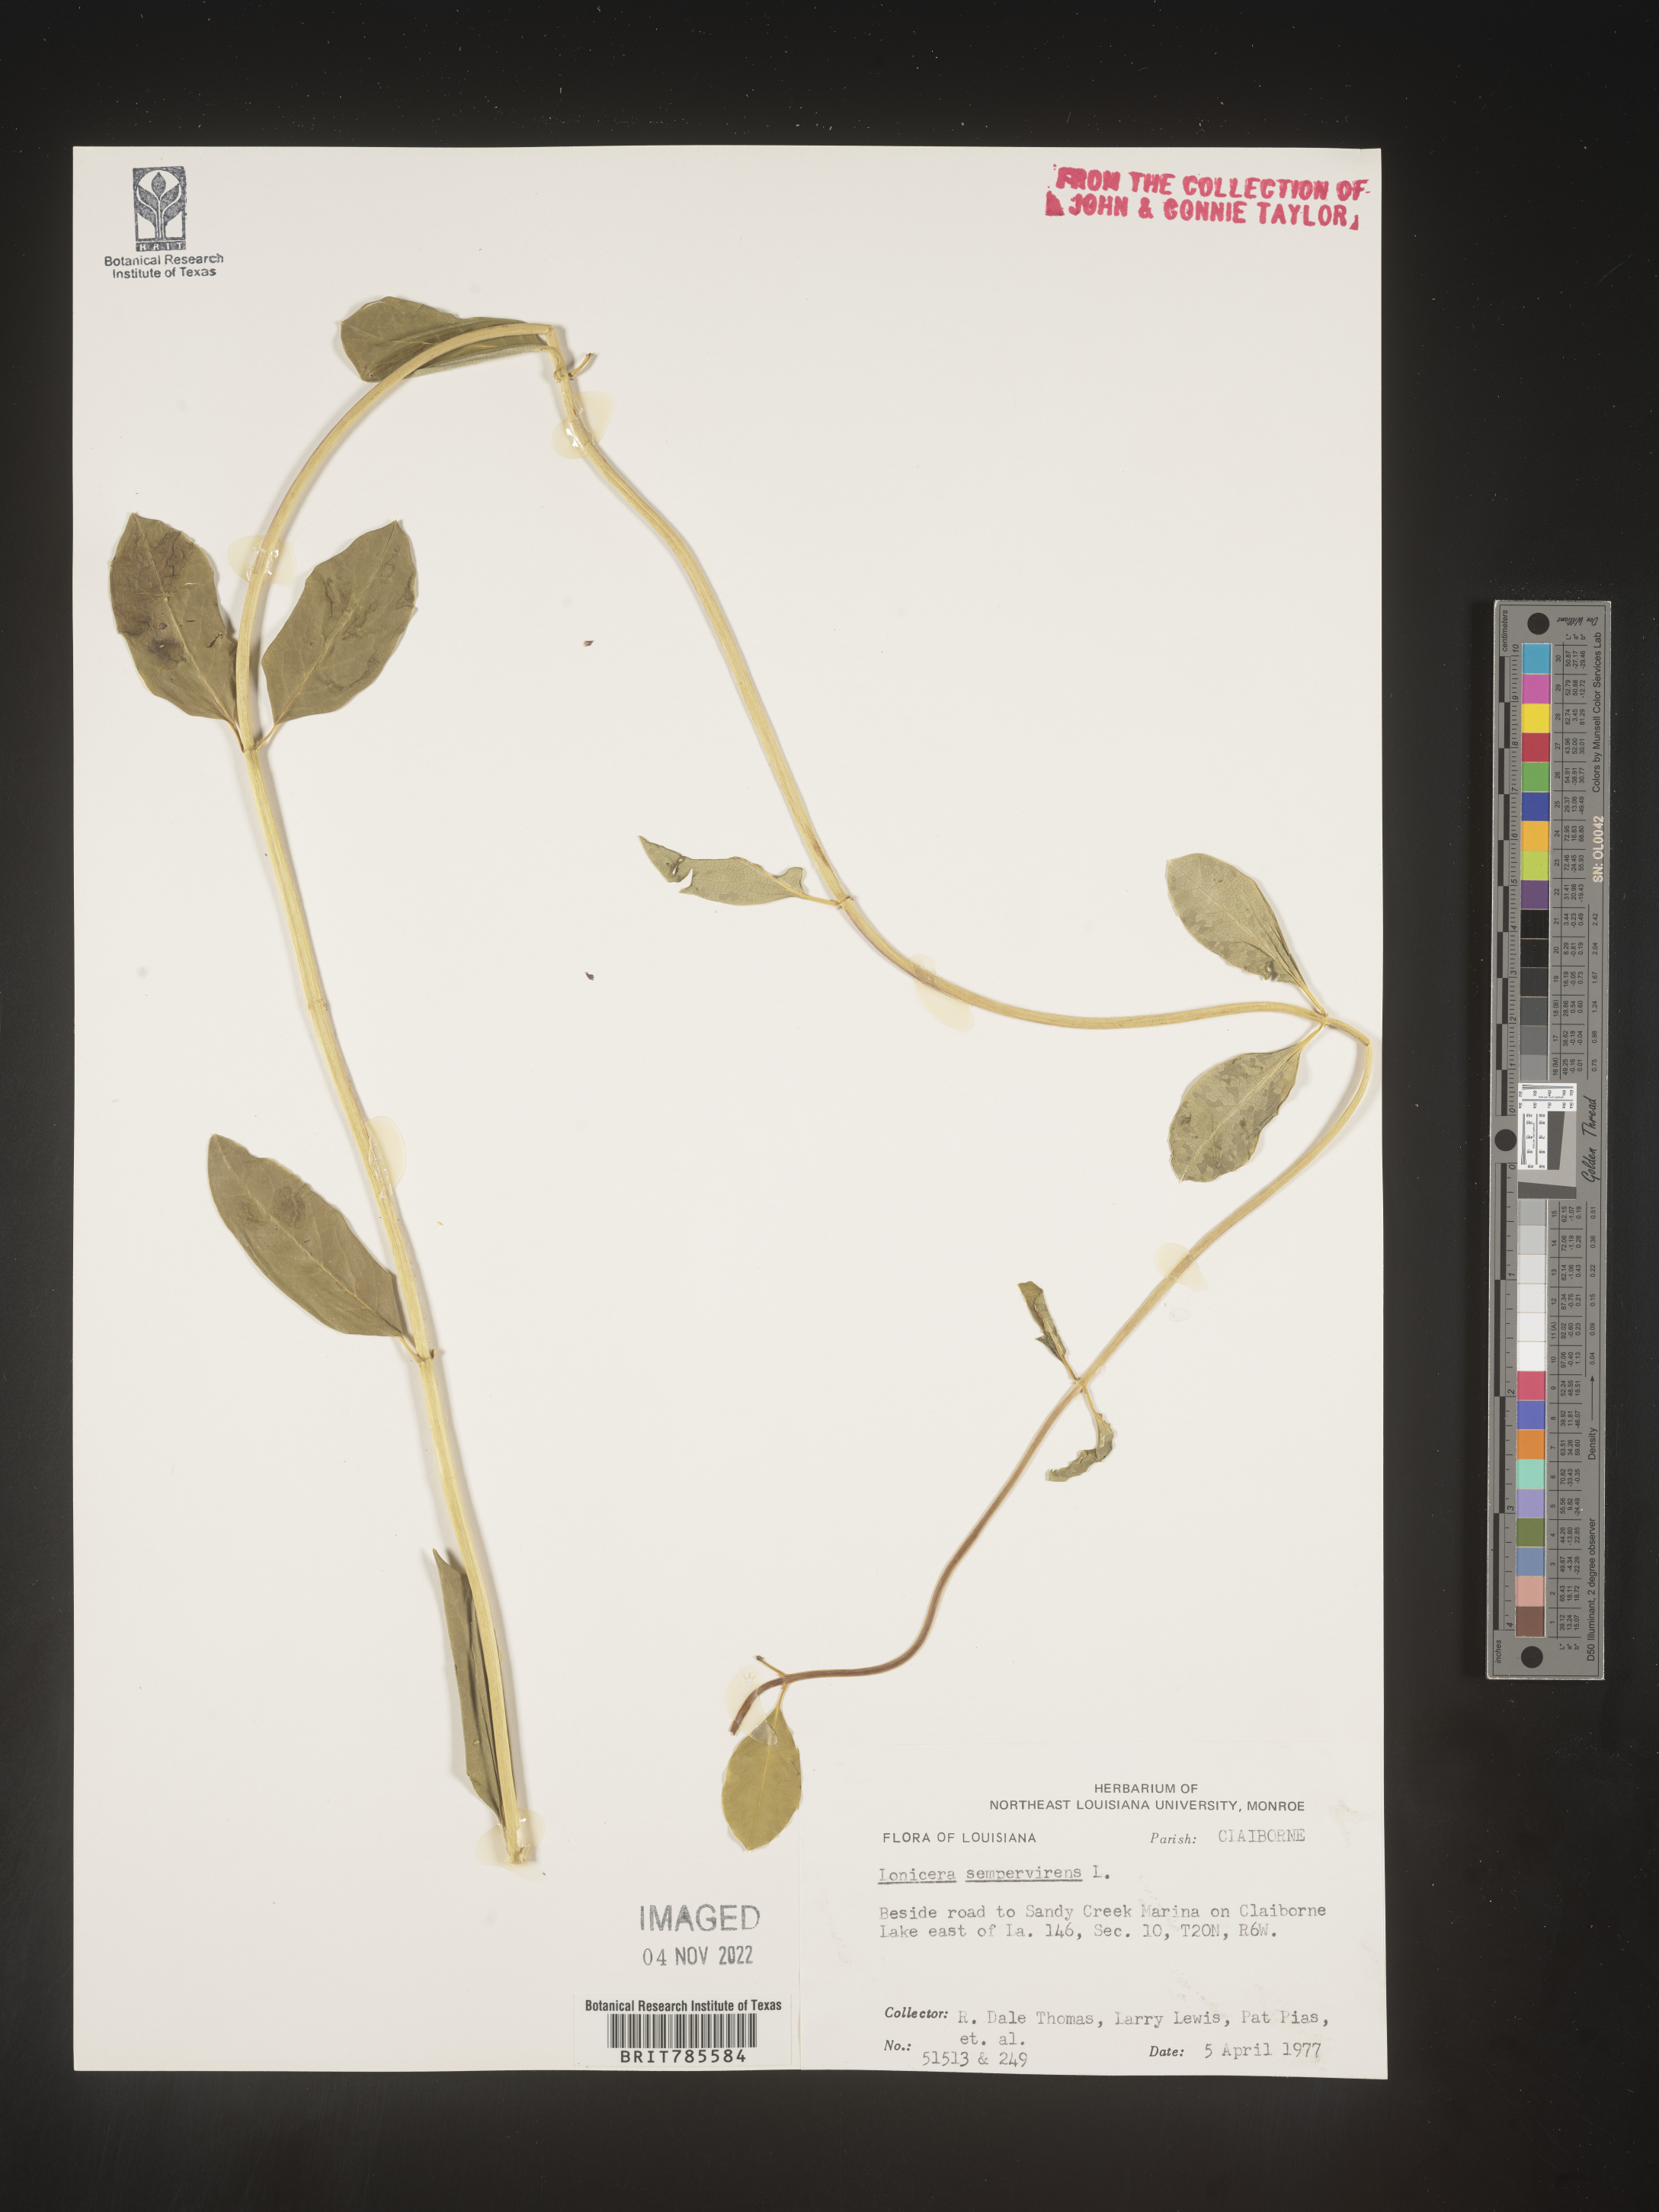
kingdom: Plantae
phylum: Tracheophyta
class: Magnoliopsida
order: Dipsacales
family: Caprifoliaceae
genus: Lonicera
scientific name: Lonicera sempervirens
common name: Coral honeysuckle
